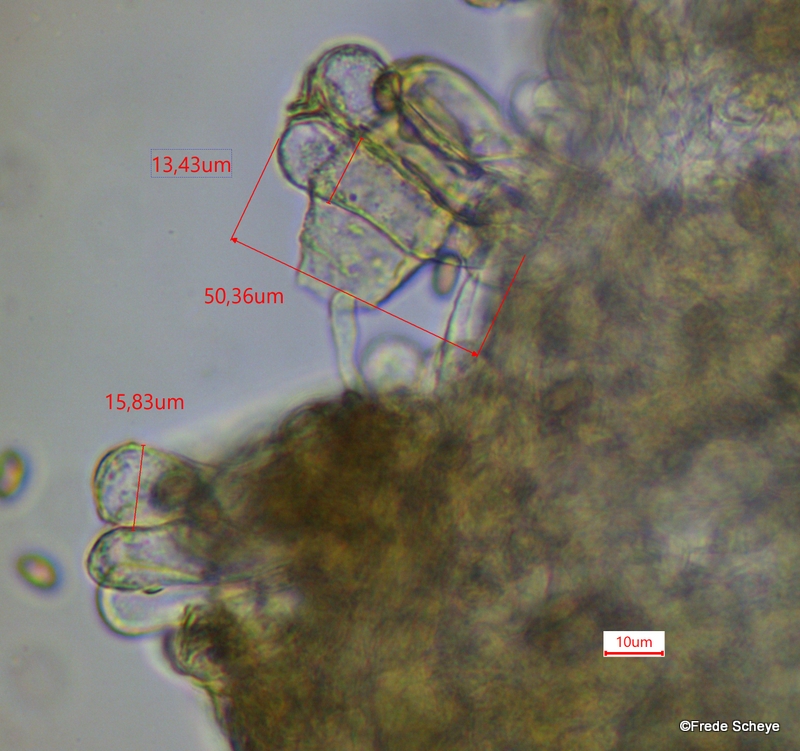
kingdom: Fungi
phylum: Basidiomycota
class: Agaricomycetes
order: Agaricales
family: Inocybaceae
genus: Inosperma
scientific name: Inosperma maculatum
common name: plettet trævlhat
